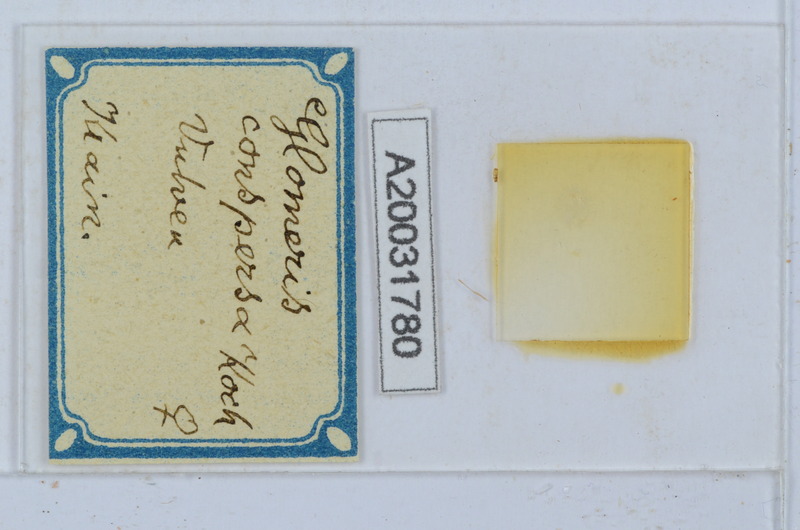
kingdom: Animalia
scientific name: Animalia
